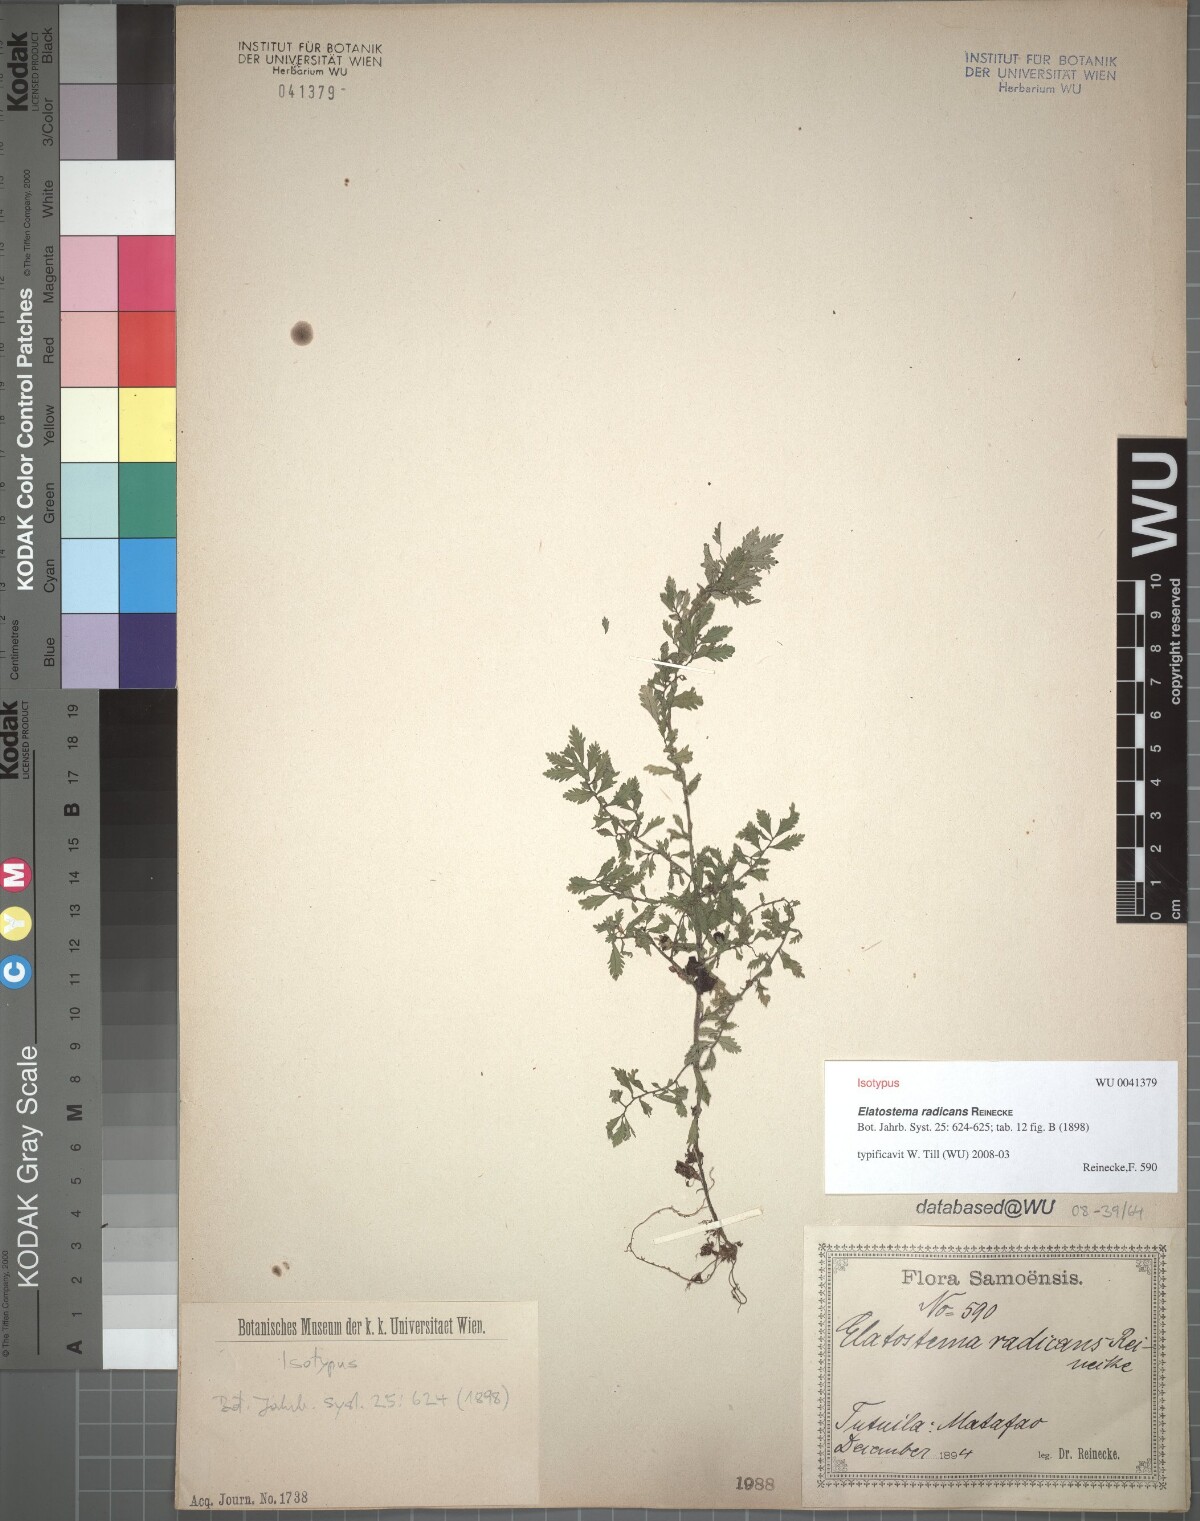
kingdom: Plantae
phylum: Tracheophyta
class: Magnoliopsida
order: Rosales
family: Urticaceae
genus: Elatostema
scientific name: Elatostema tutuilense
